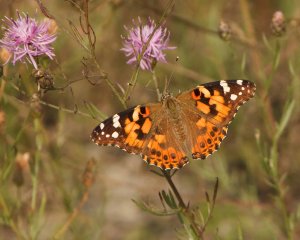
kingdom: Animalia
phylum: Arthropoda
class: Insecta
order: Lepidoptera
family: Nymphalidae
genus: Vanessa
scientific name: Vanessa cardui
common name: Painted Lady
